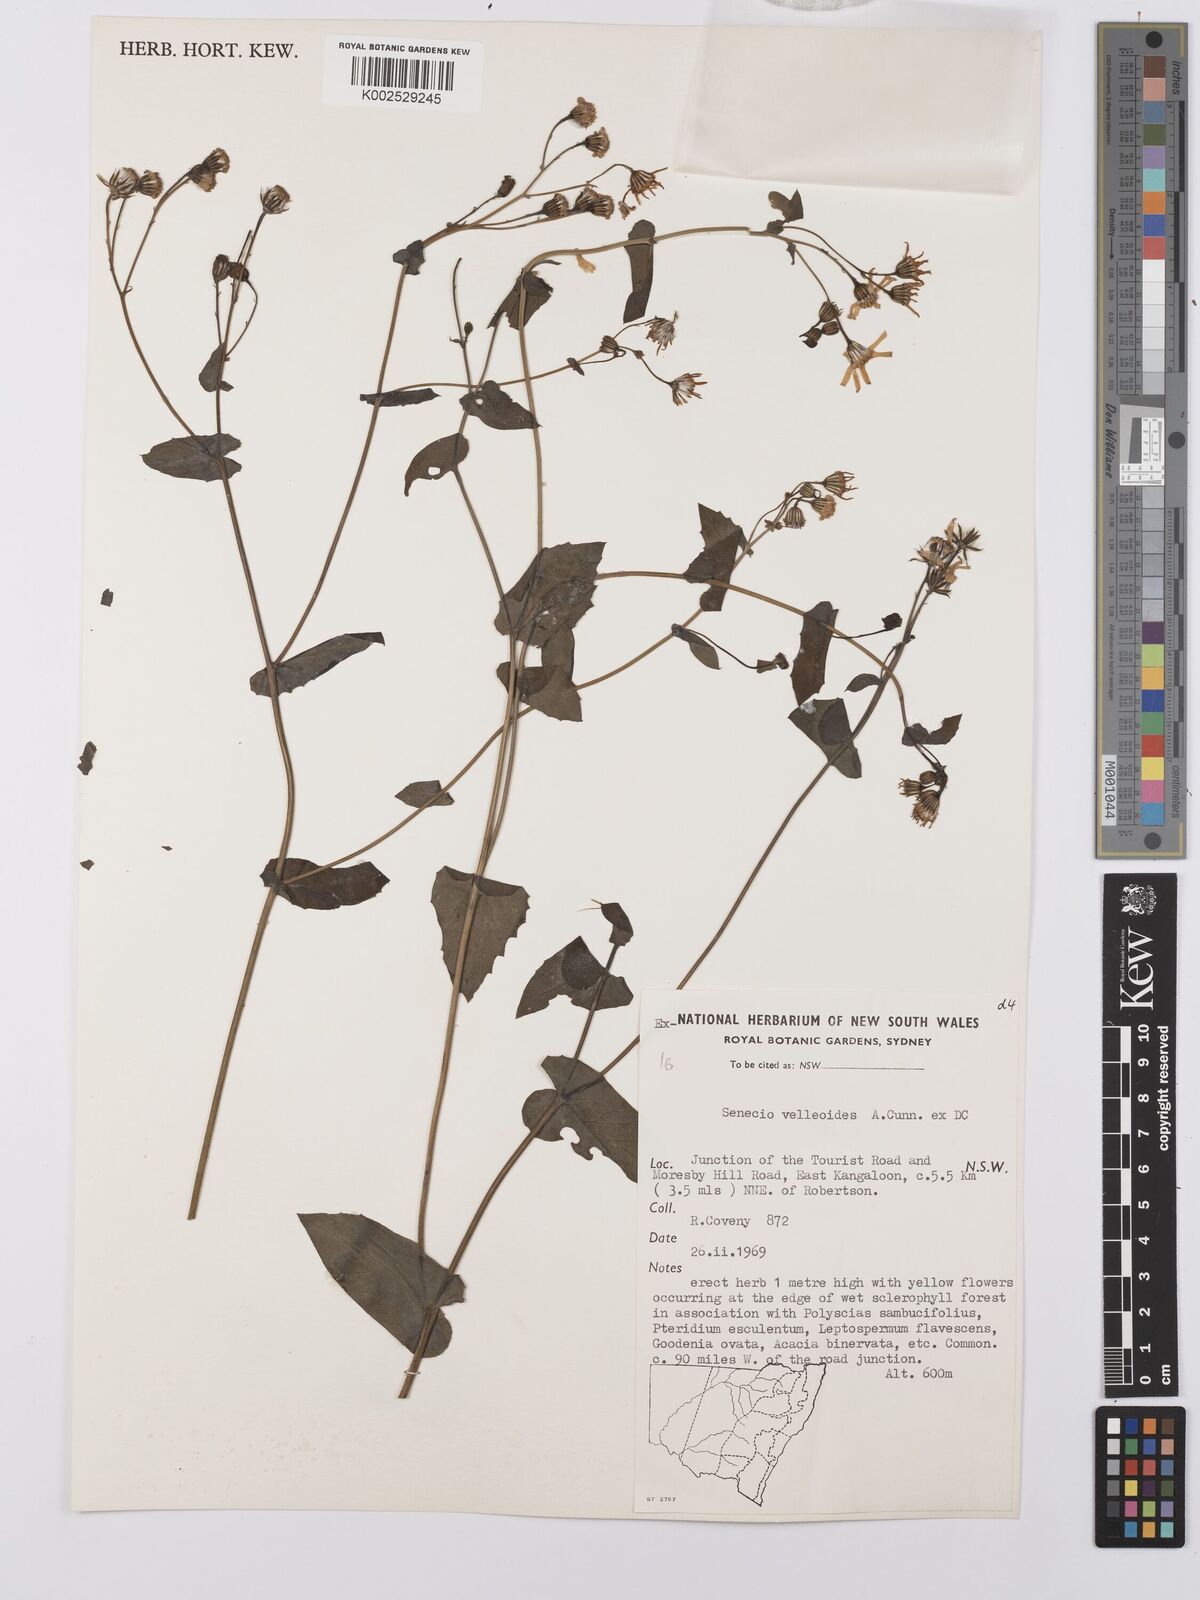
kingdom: Plantae
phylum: Tracheophyta
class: Magnoliopsida
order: Asterales
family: Asteraceae
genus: Lordhowea
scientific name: Lordhowea velleioides
